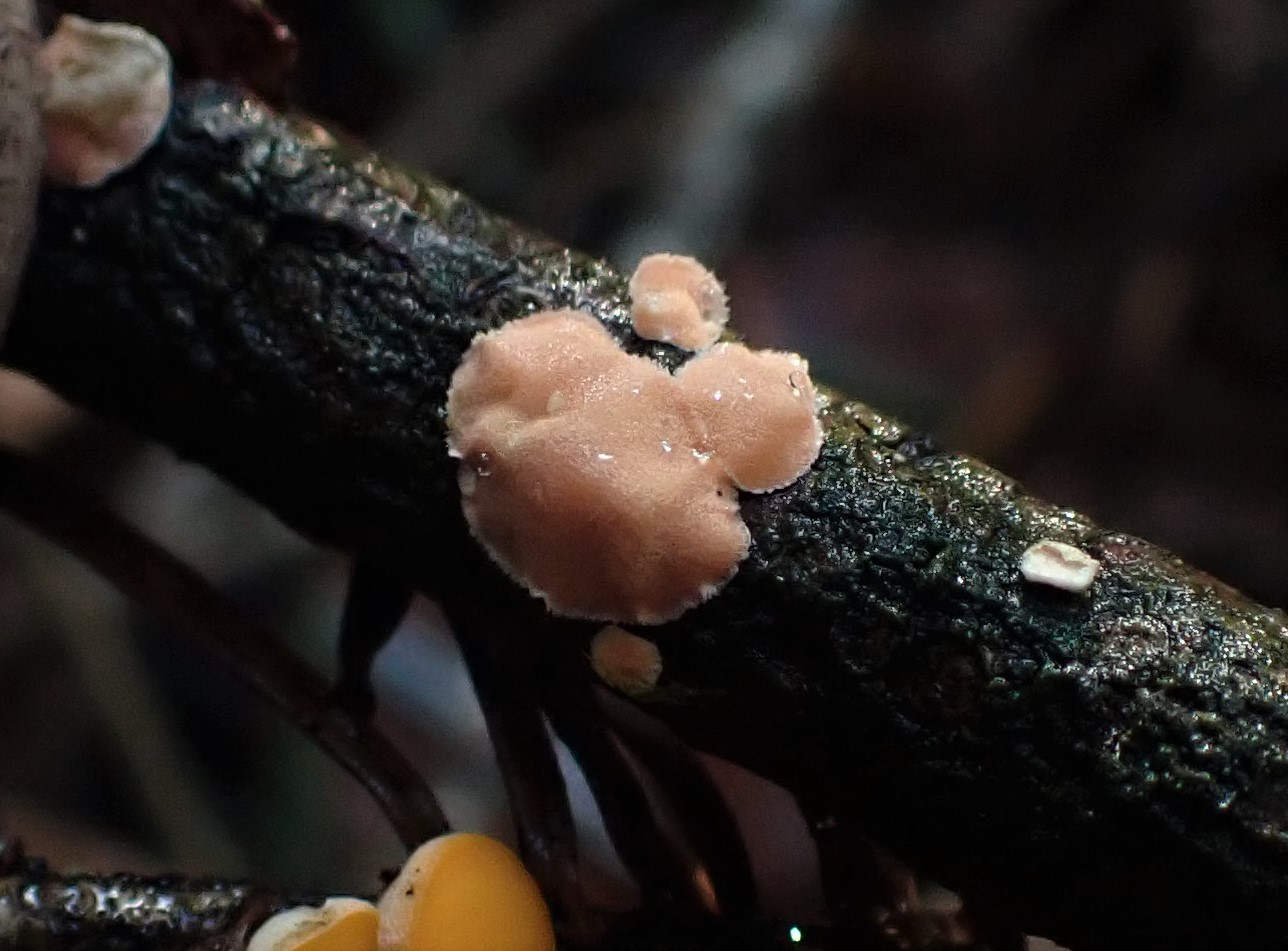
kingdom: Fungi
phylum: Basidiomycota
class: Agaricomycetes
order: Russulales
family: Stereaceae
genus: Aleurodiscus
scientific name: Aleurodiscus amorphus
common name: orange skiveskorpe
